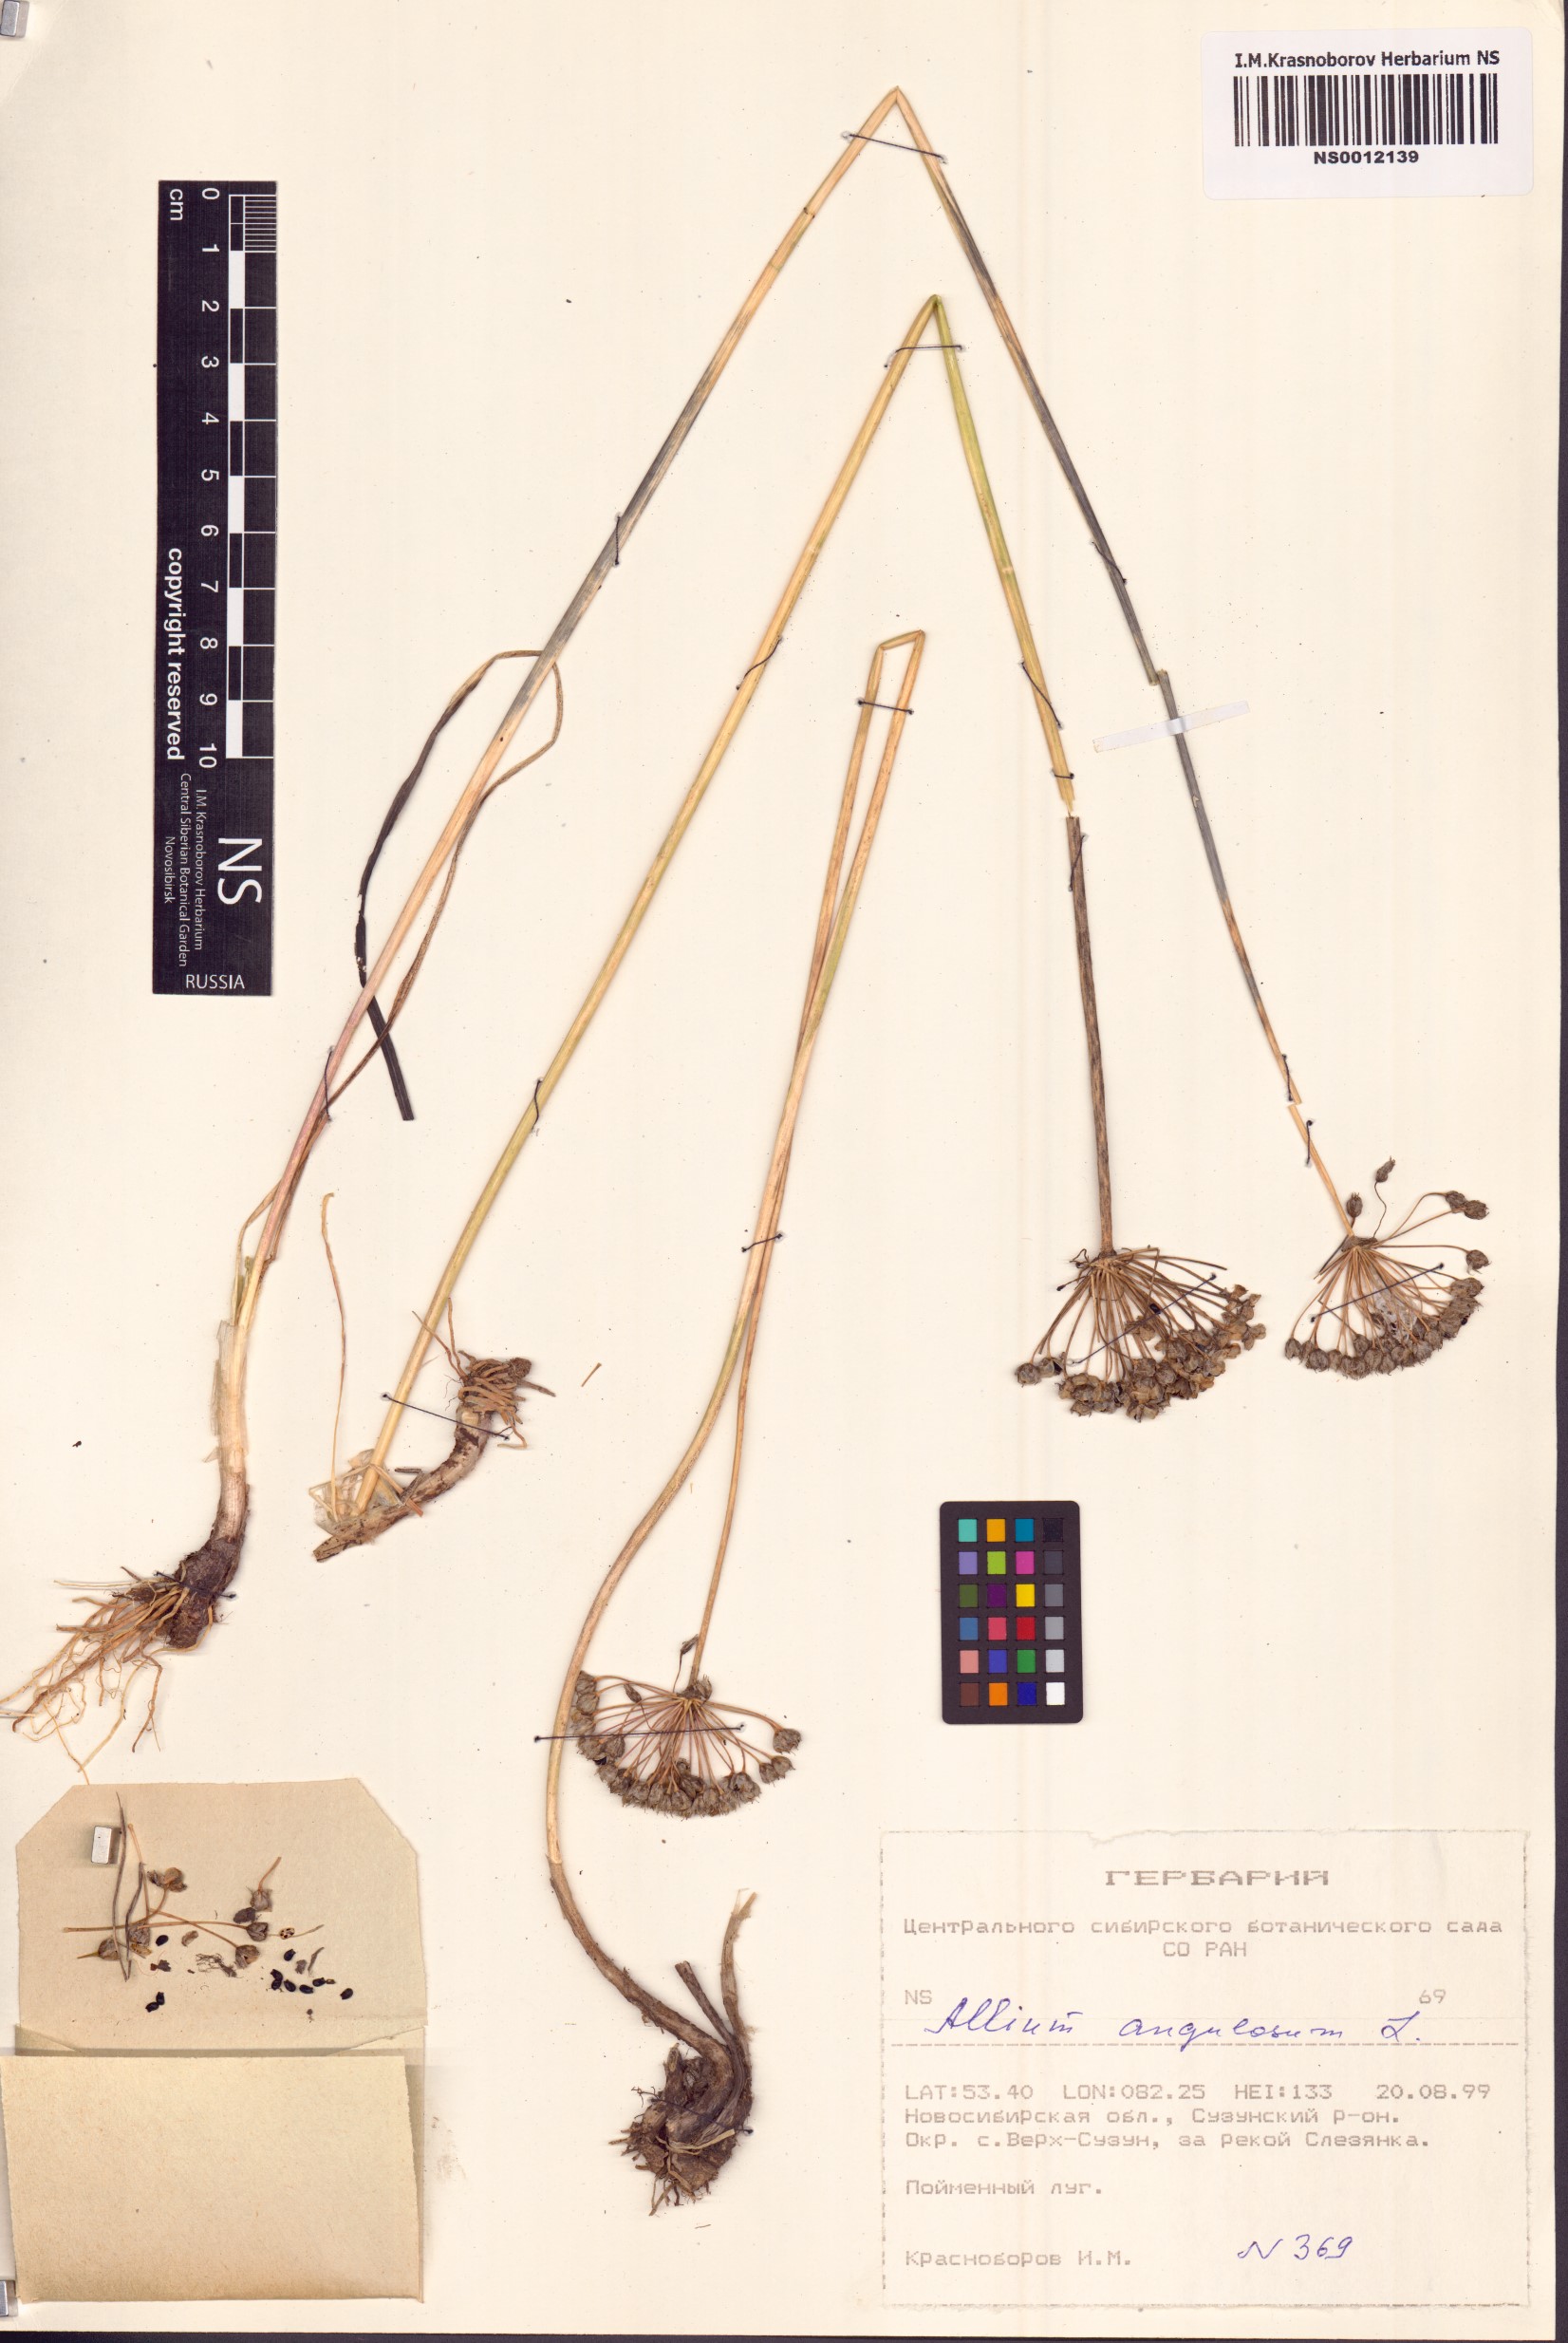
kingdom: Plantae
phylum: Tracheophyta
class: Liliopsida
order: Asparagales
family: Amaryllidaceae
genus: Allium
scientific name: Allium angulosum
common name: Mouse garlic
